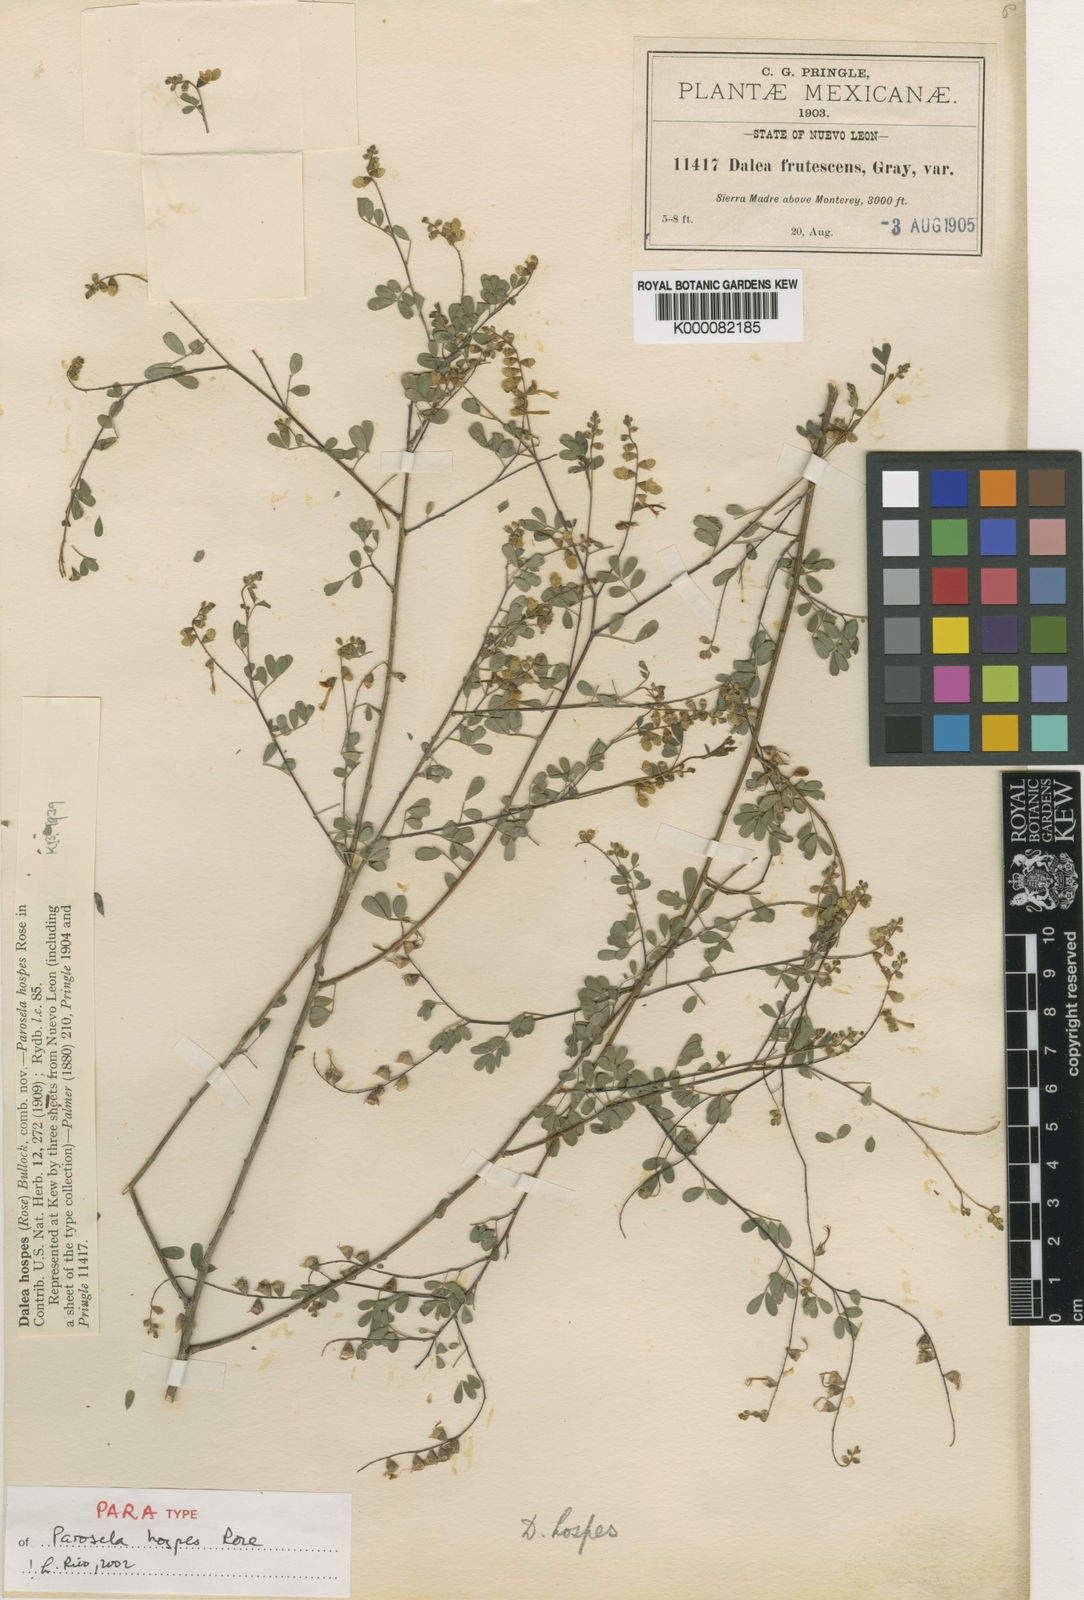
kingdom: Plantae
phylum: Tracheophyta
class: Magnoliopsida
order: Fabales
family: Fabaceae
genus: Dalea
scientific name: Dalea hospes
